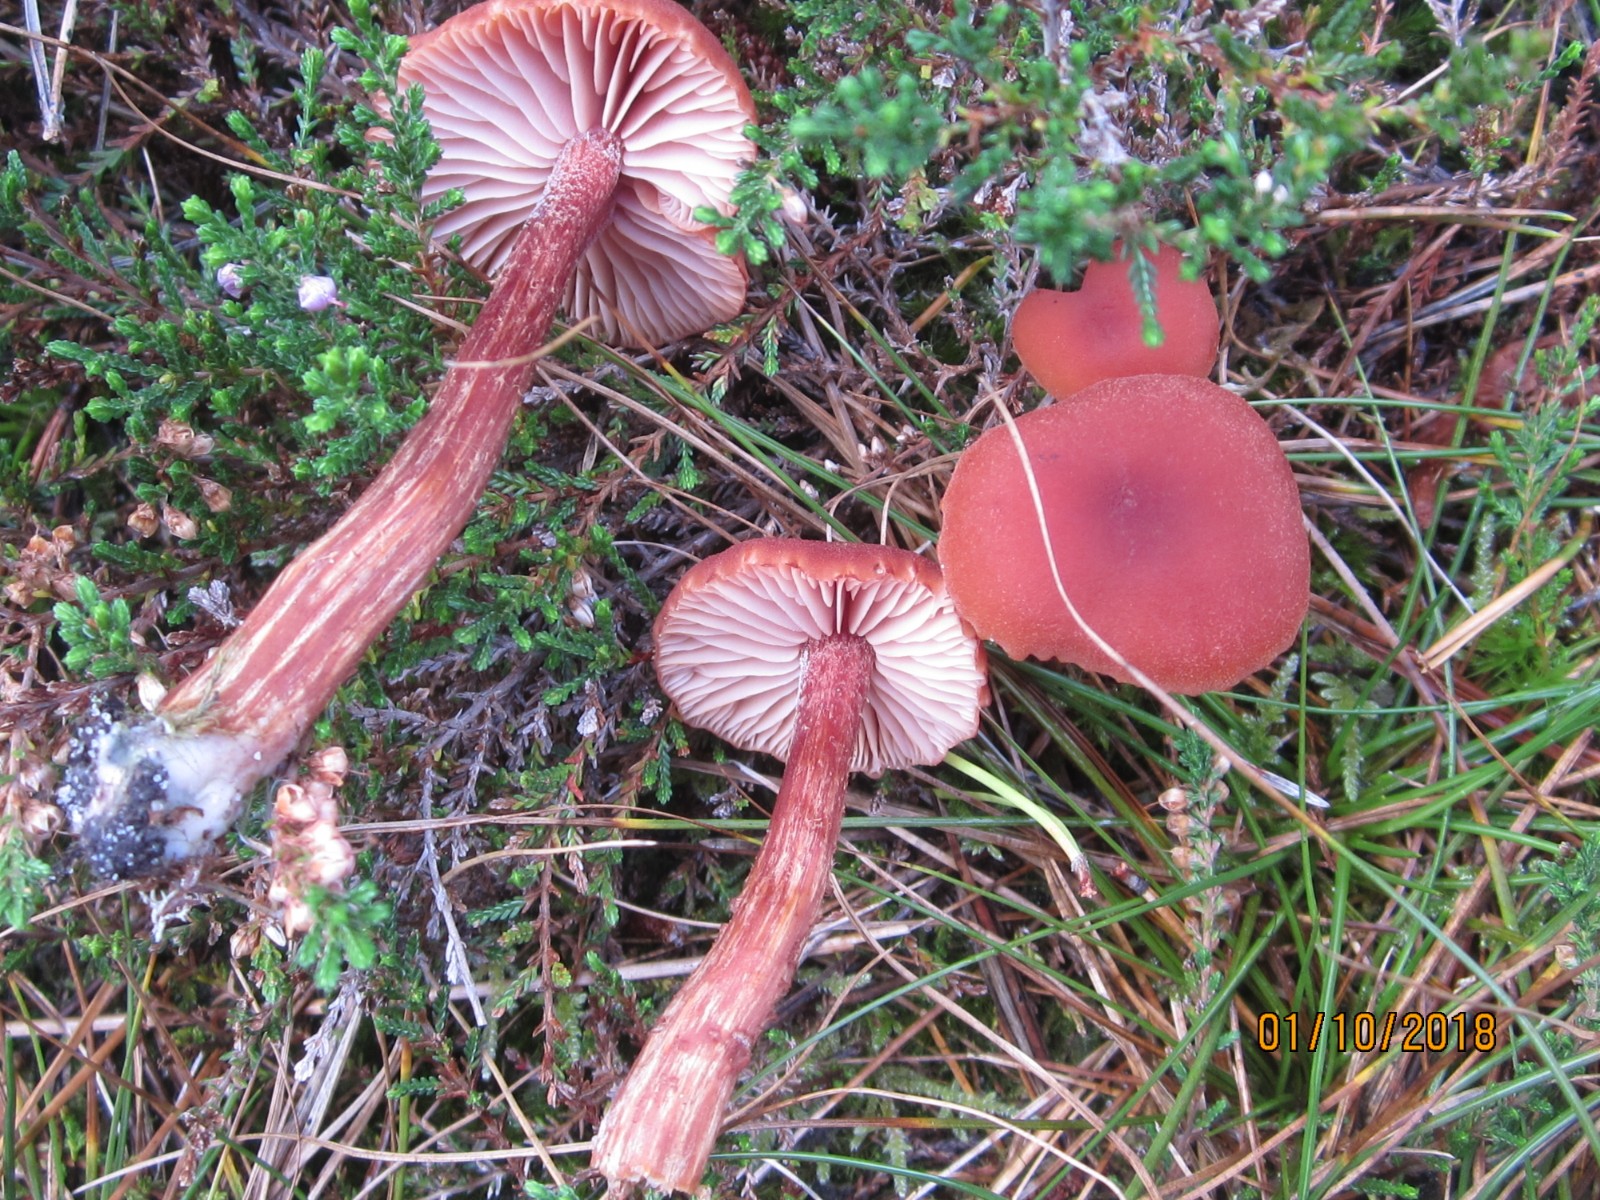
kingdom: Fungi
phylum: Basidiomycota
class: Agaricomycetes
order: Agaricales
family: Hydnangiaceae
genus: Laccaria
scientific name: Laccaria proxima
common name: stor ametysthat
